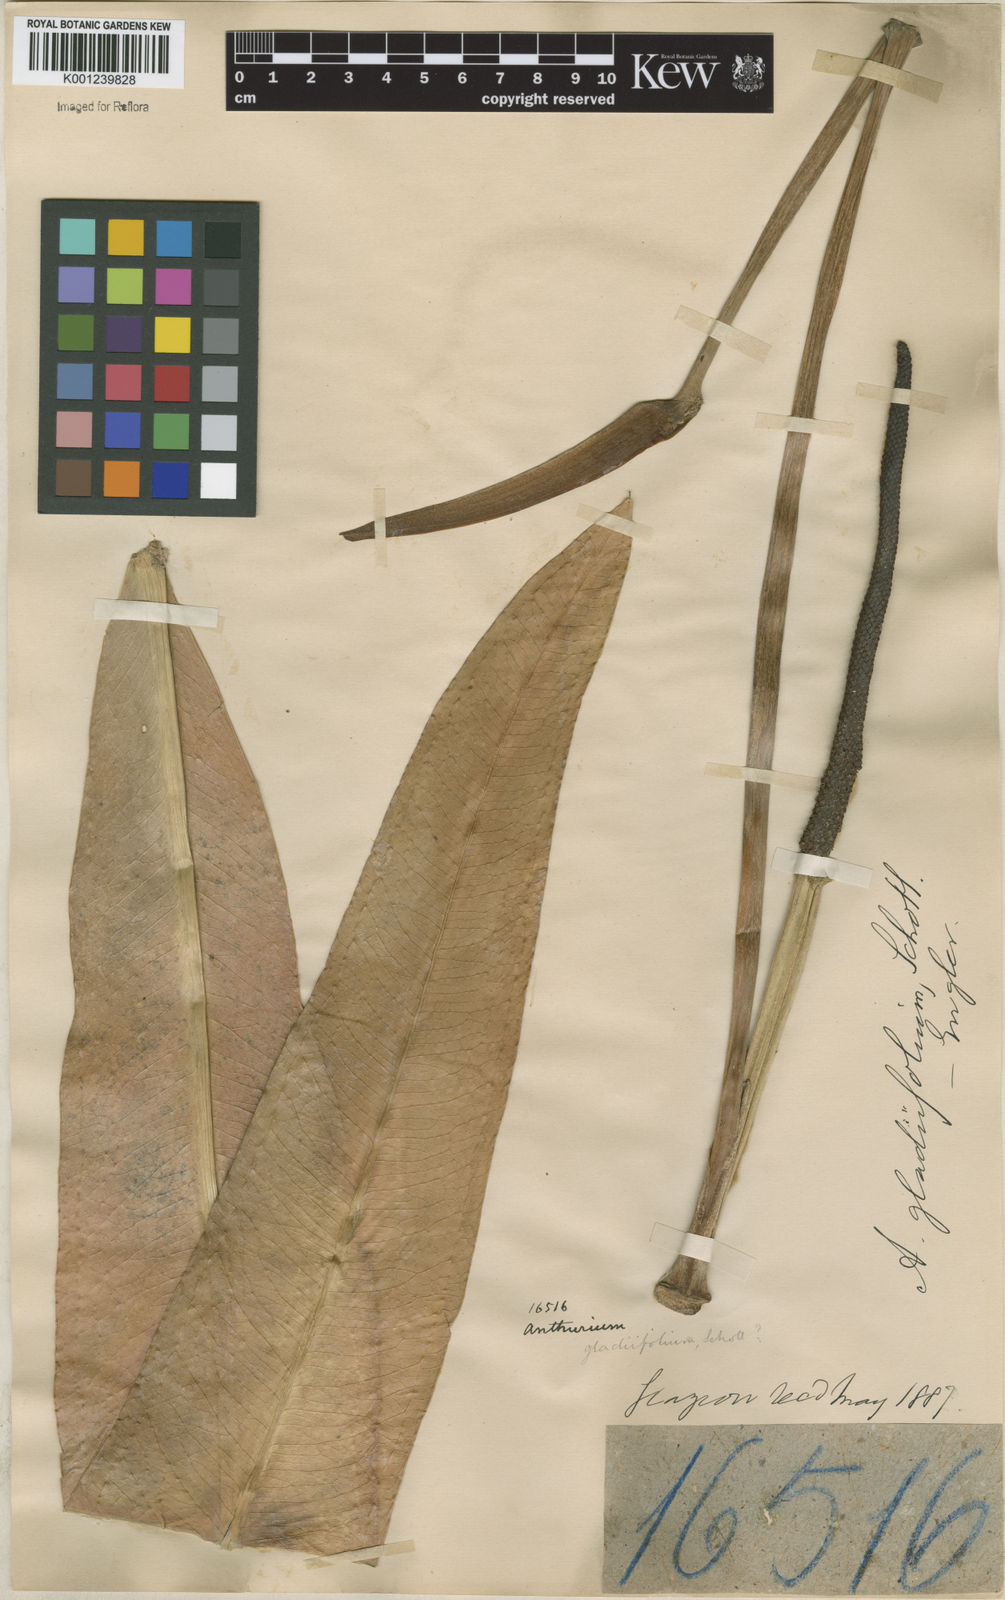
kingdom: Plantae
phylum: Tracheophyta
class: Liliopsida
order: Alismatales
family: Araceae
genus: Anthurium
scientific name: Anthurium
